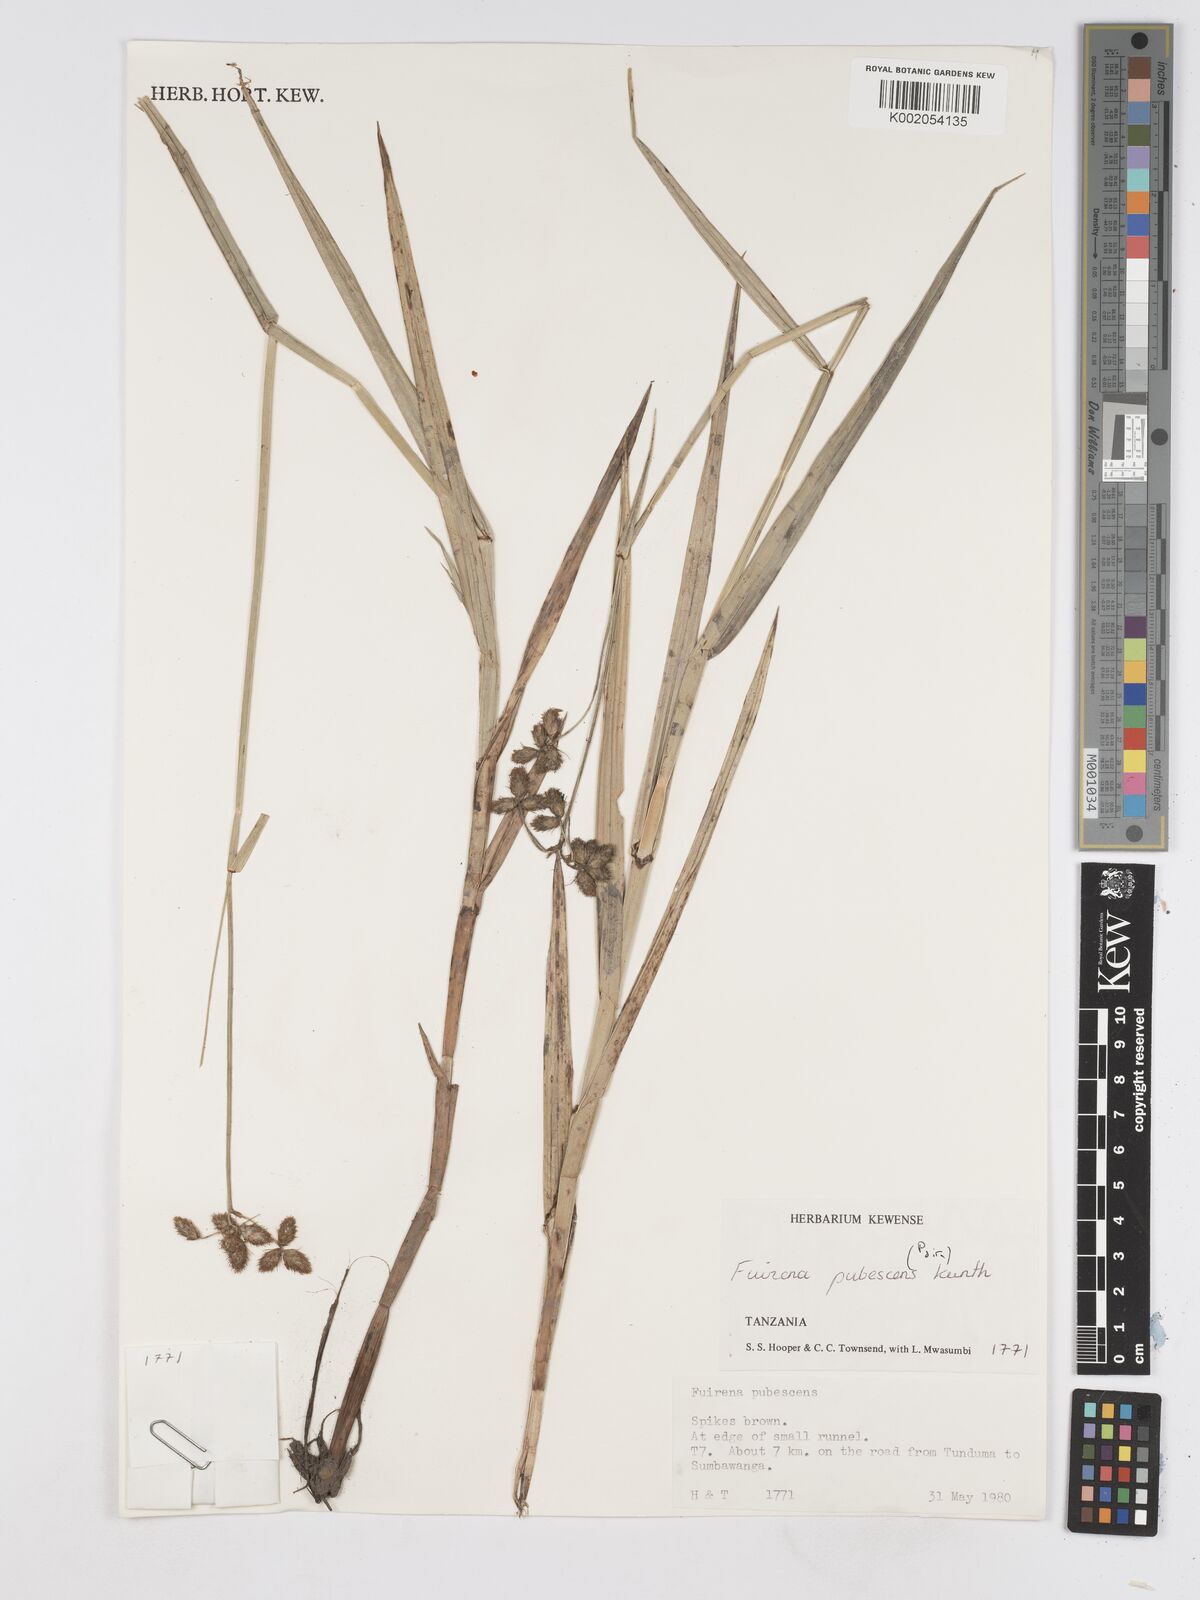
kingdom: Plantae
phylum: Tracheophyta
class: Liliopsida
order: Poales
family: Cyperaceae
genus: Fuirena
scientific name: Fuirena pubescens
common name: Hairy sedge
